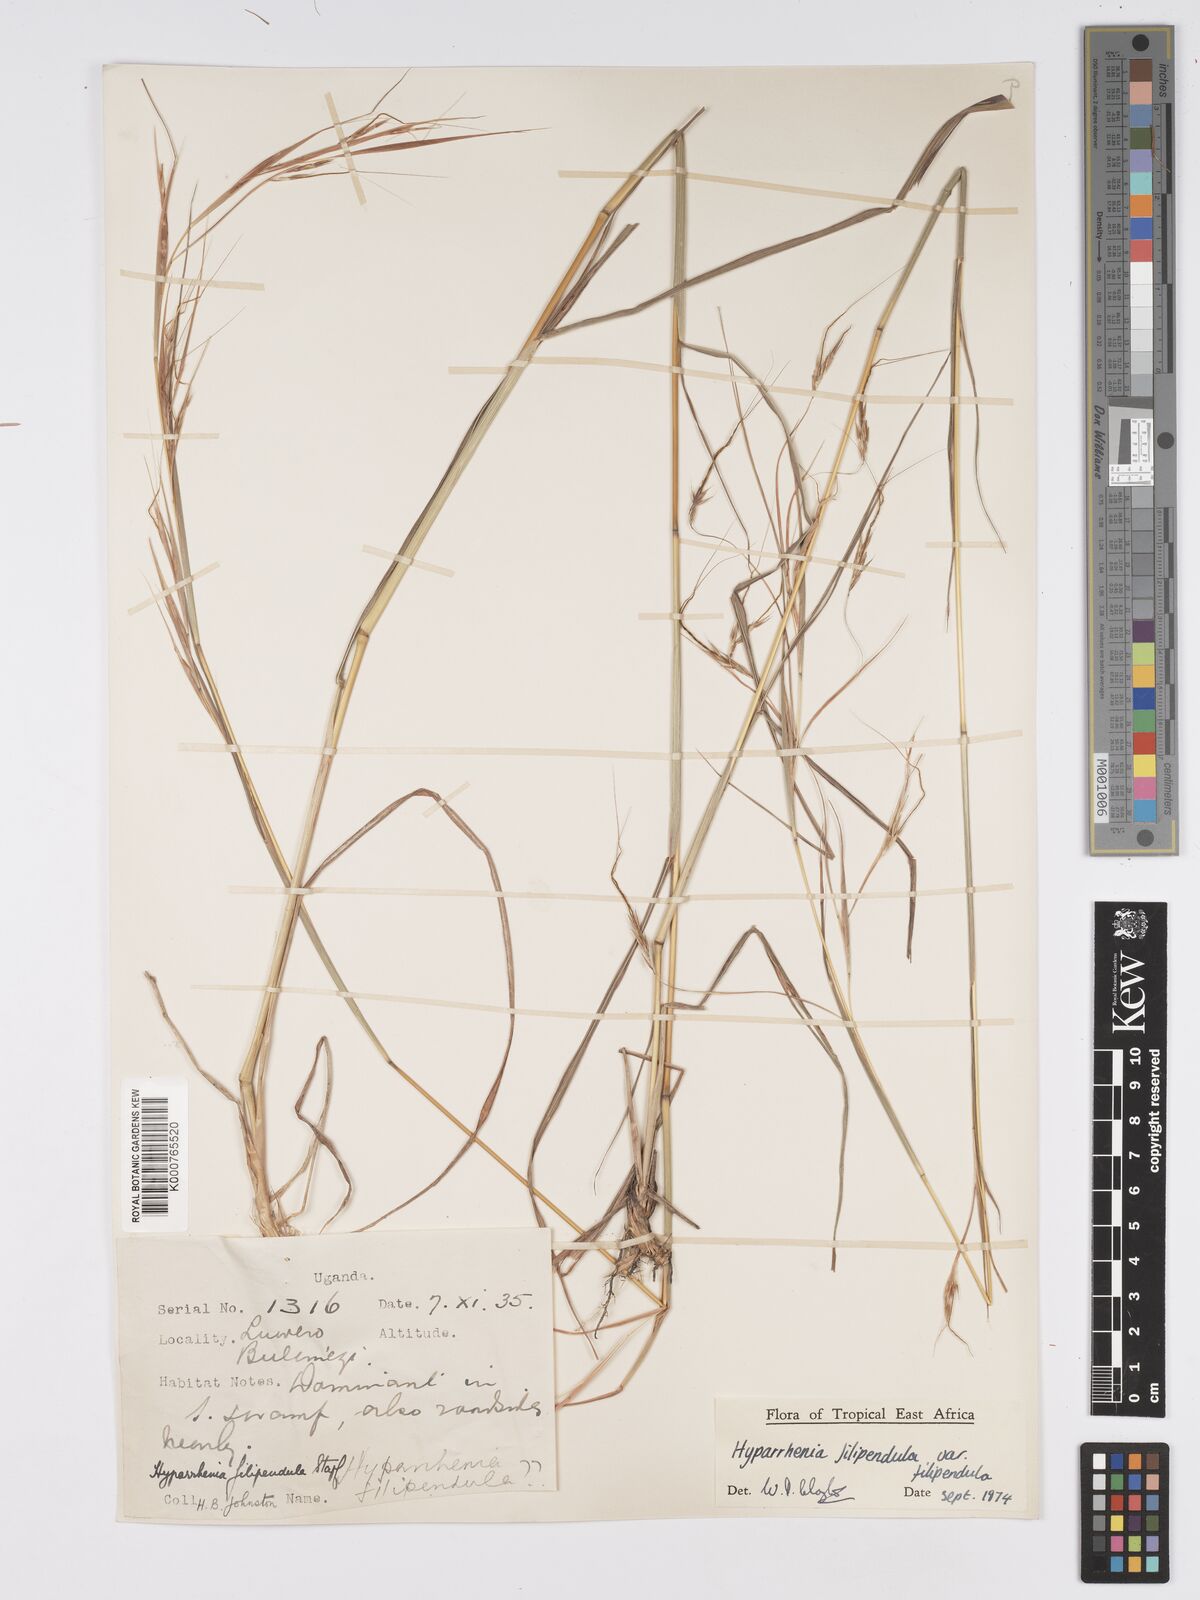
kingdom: Plantae
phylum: Tracheophyta
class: Liliopsida
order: Poales
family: Poaceae
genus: Hyparrhenia
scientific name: Hyparrhenia filipendula
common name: Tambookie grass
